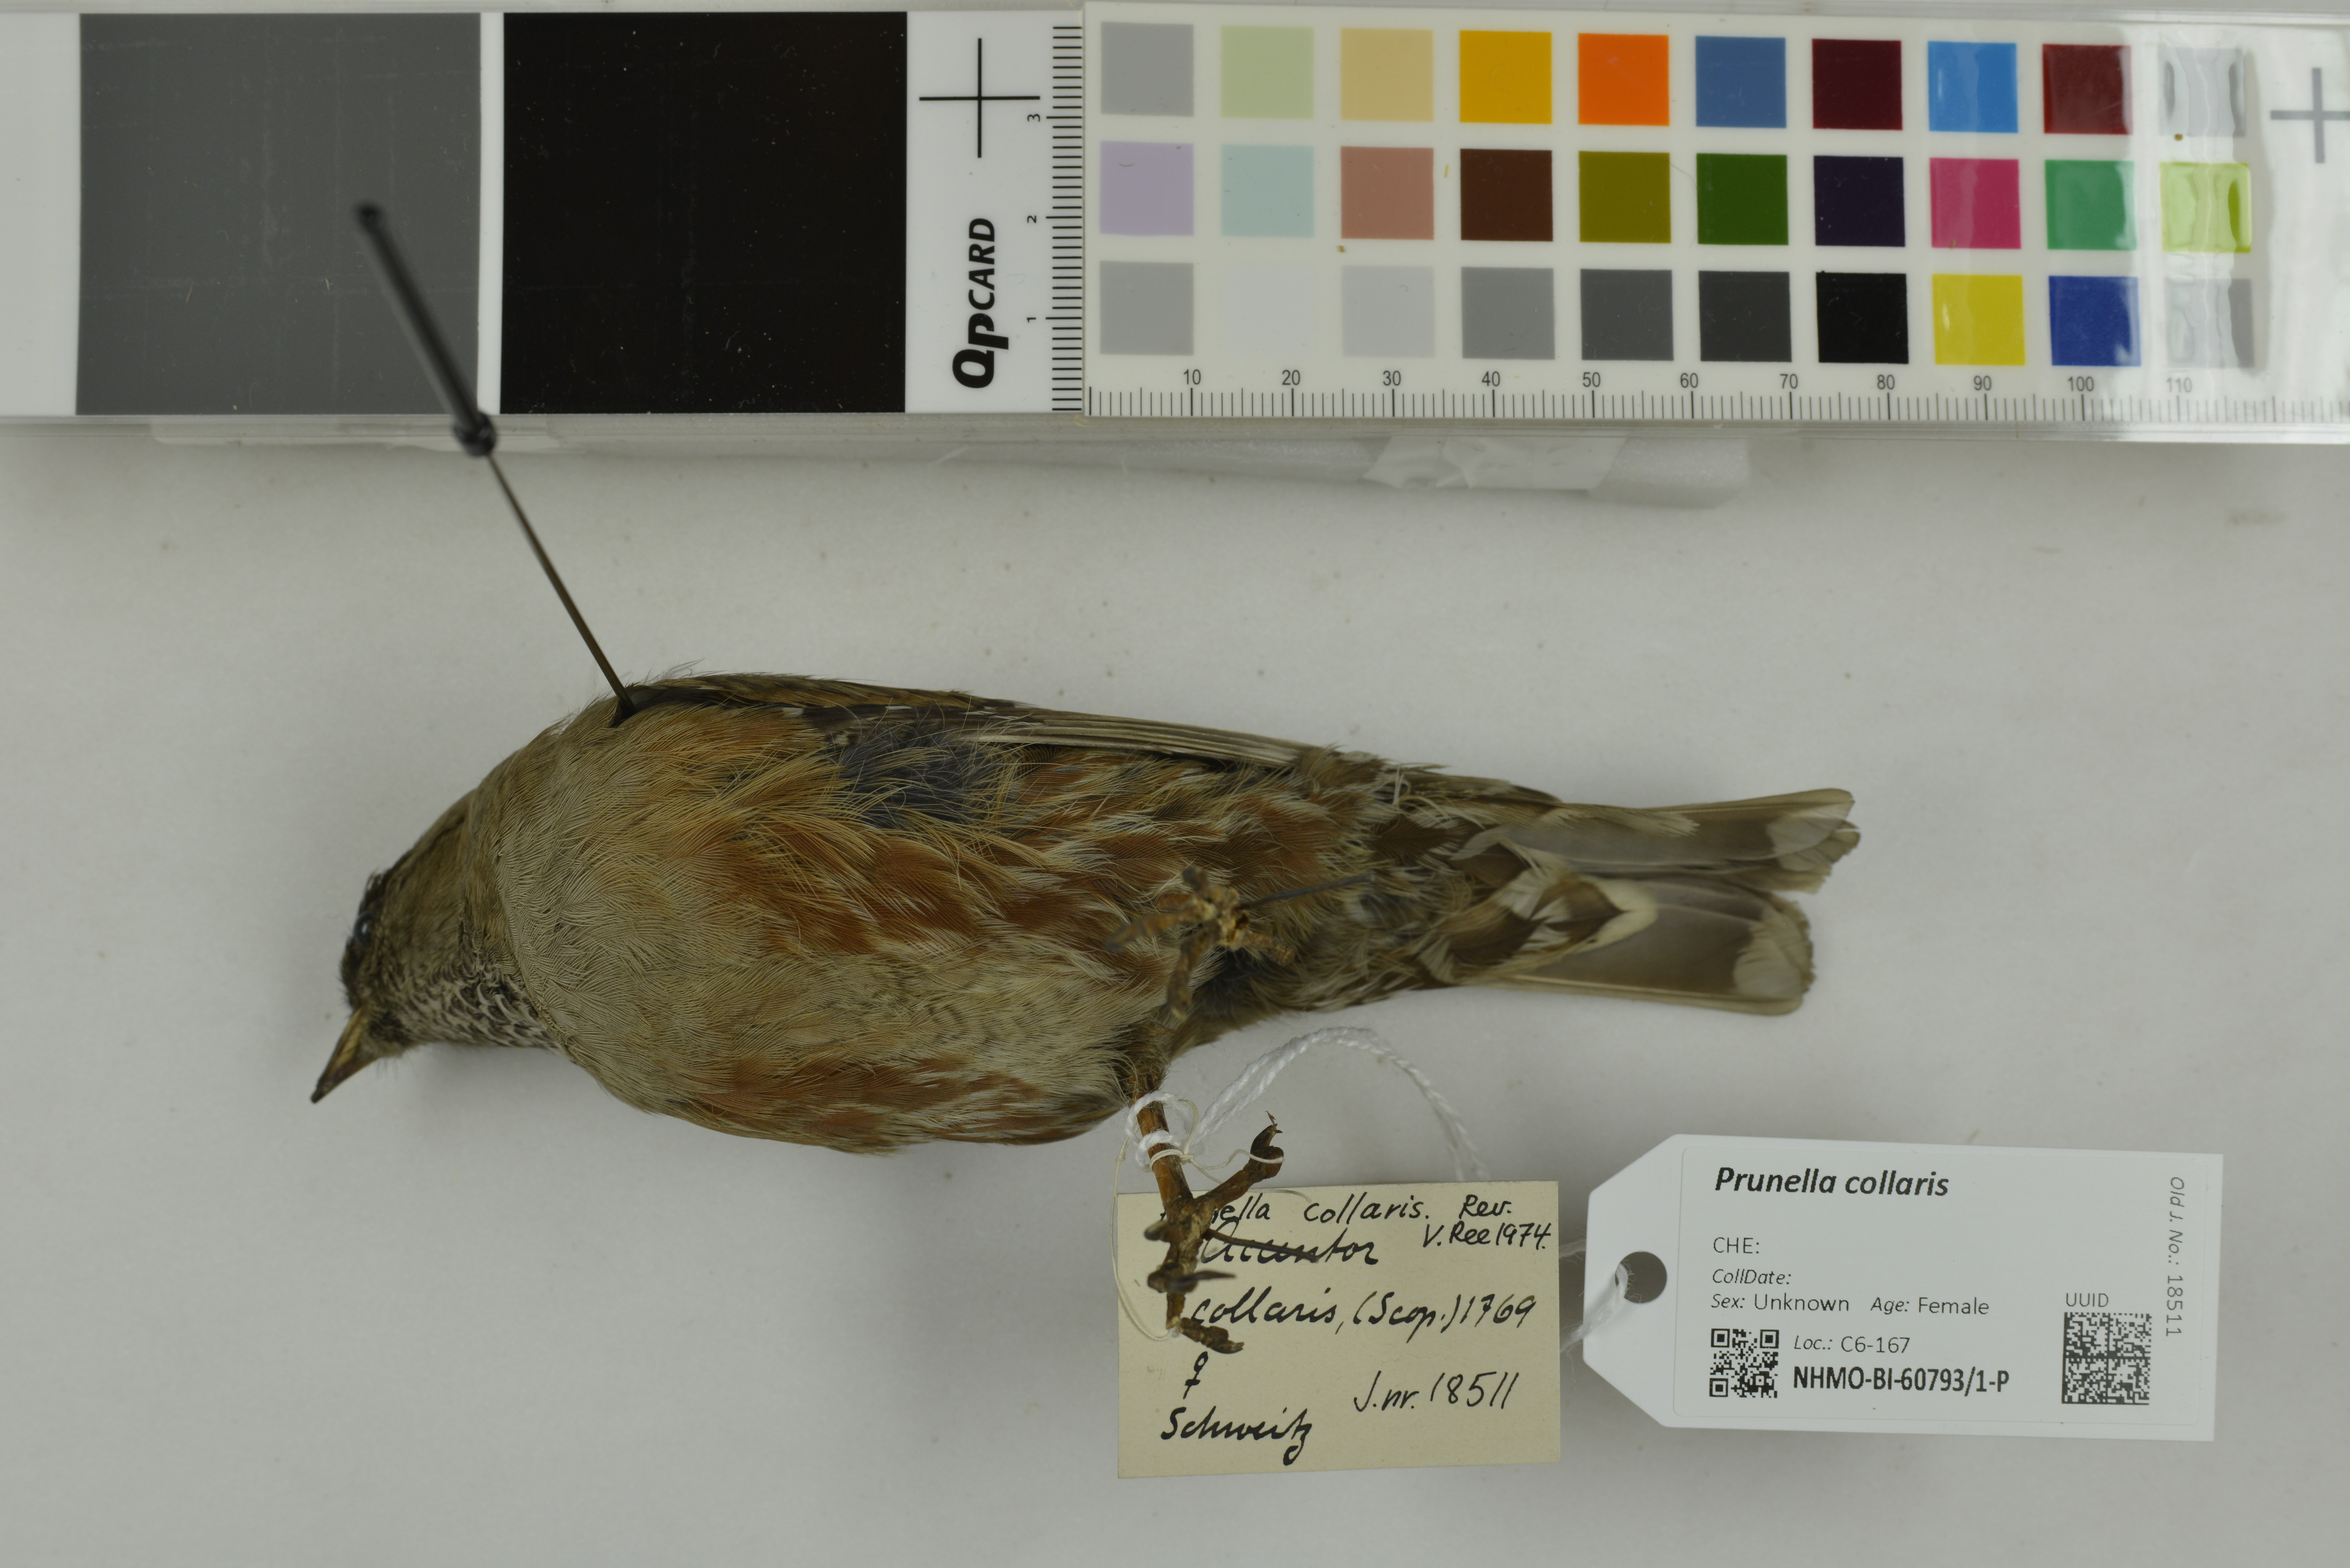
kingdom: Animalia
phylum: Chordata
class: Aves
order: Passeriformes
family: Prunellidae
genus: Prunella
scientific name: Prunella collaris
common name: Alpine accentor
